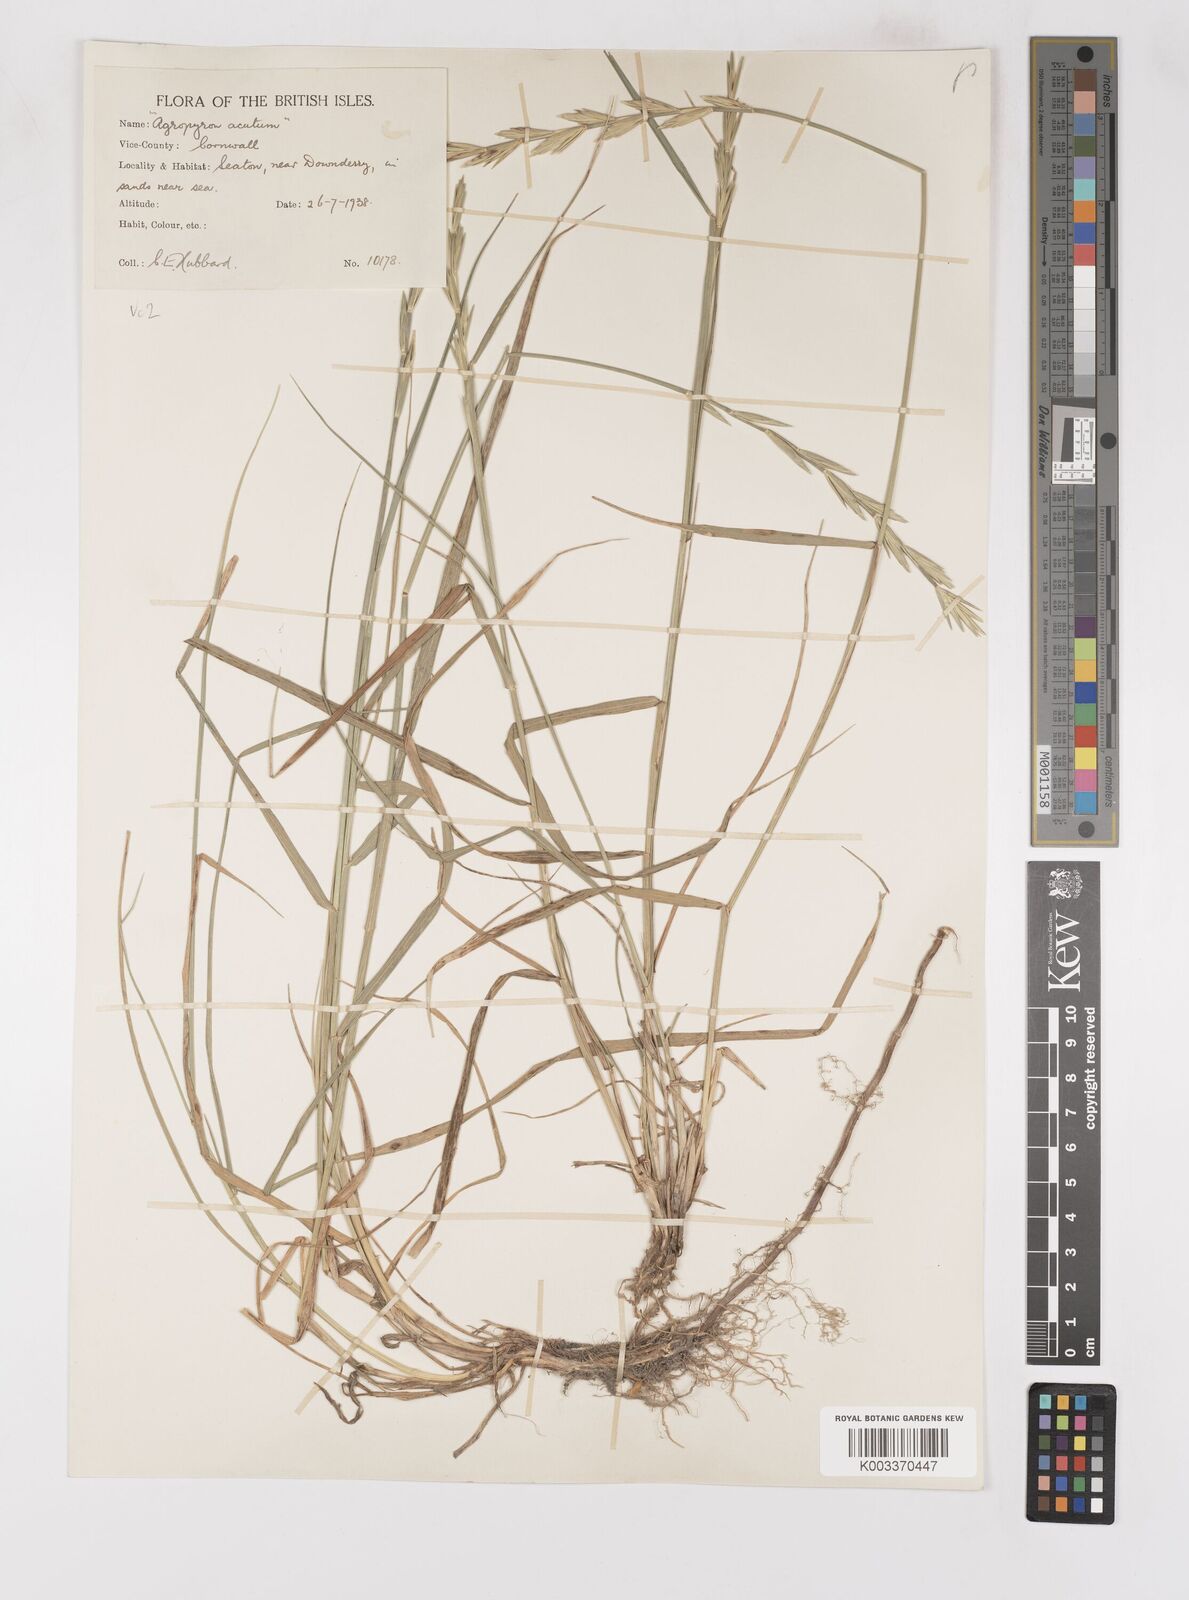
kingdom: Plantae
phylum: Tracheophyta
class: Liliopsida
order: Poales
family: Poaceae
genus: Thinoelymus
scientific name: Thinoelymus obtusiusculus
